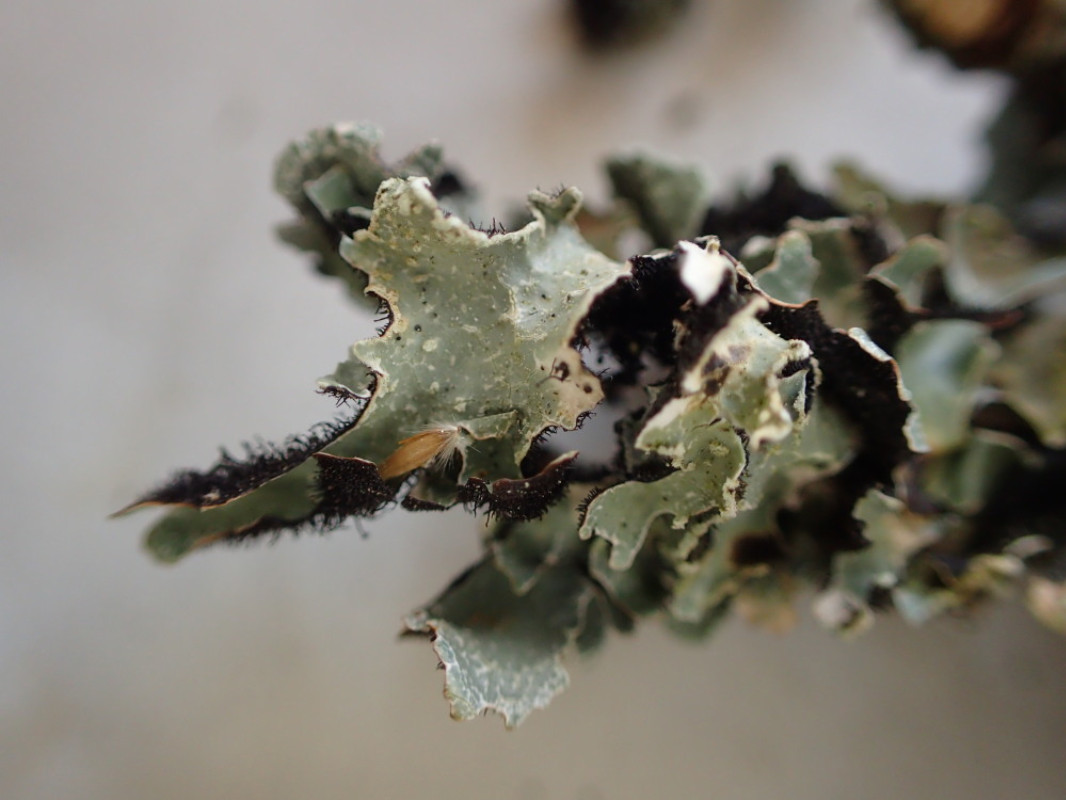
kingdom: Fungi
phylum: Ascomycota
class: Lecanoromycetes
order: Lecanorales
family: Parmeliaceae
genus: Parmelia
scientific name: Parmelia sulcata
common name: rynket skållav
